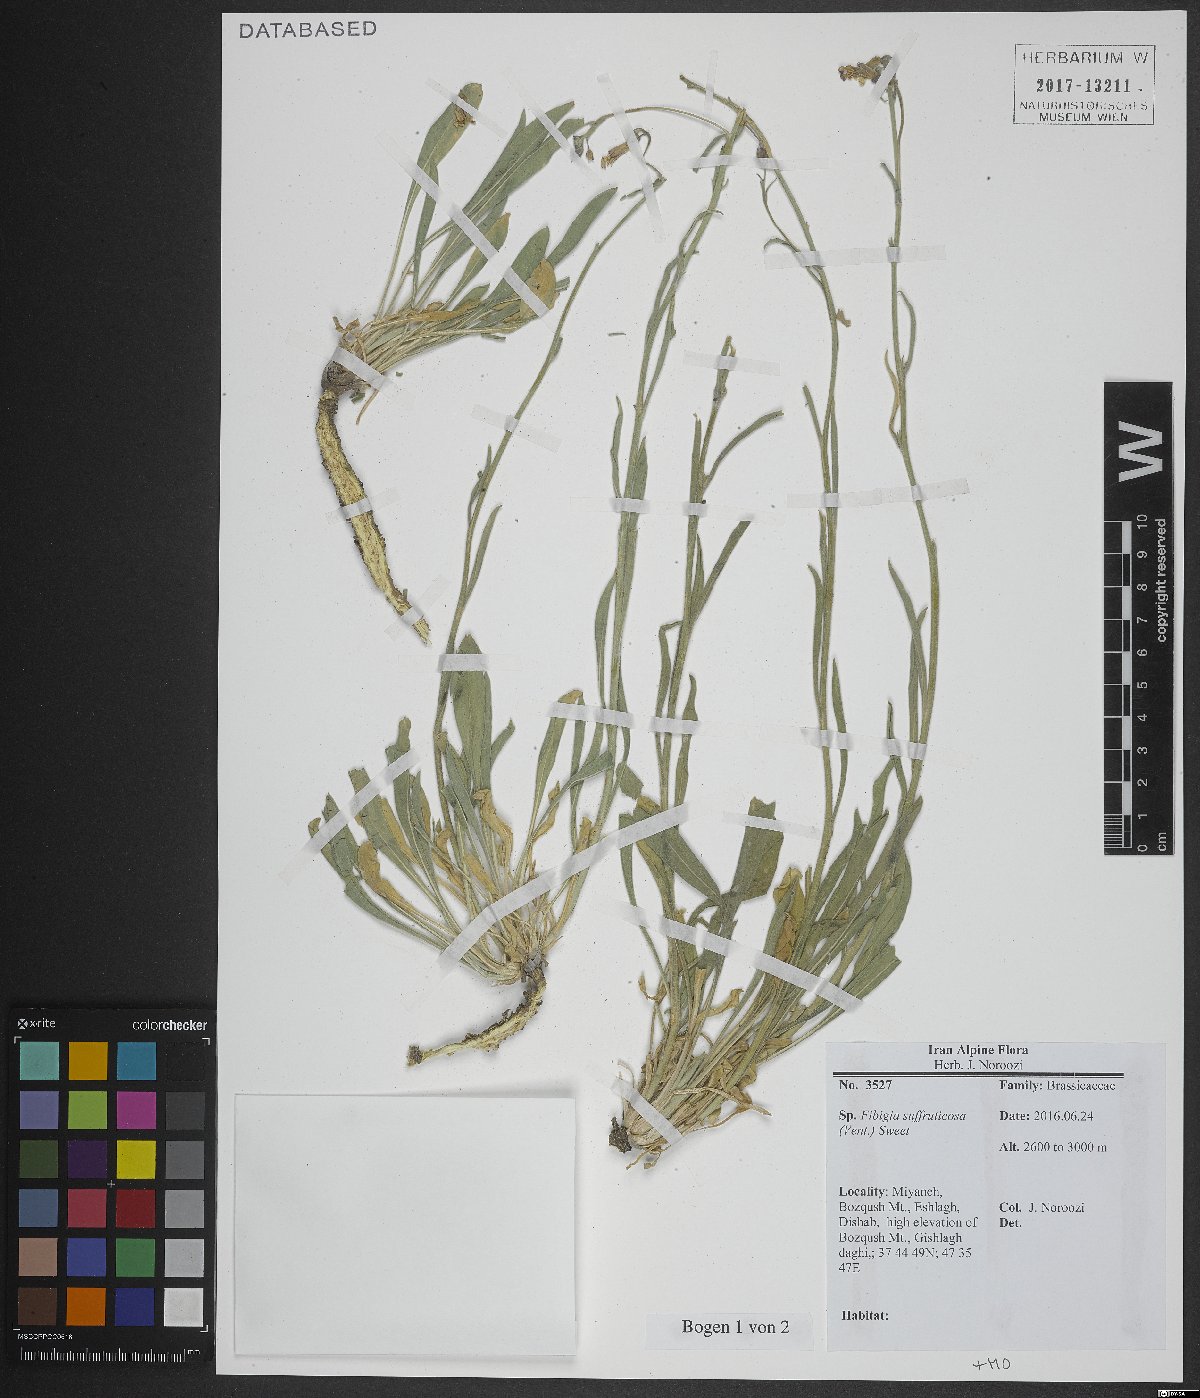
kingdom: Plantae
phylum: Tracheophyta
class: Magnoliopsida
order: Brassicales
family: Brassicaceae
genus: Brachypus
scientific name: Brachypus suffruticosus
